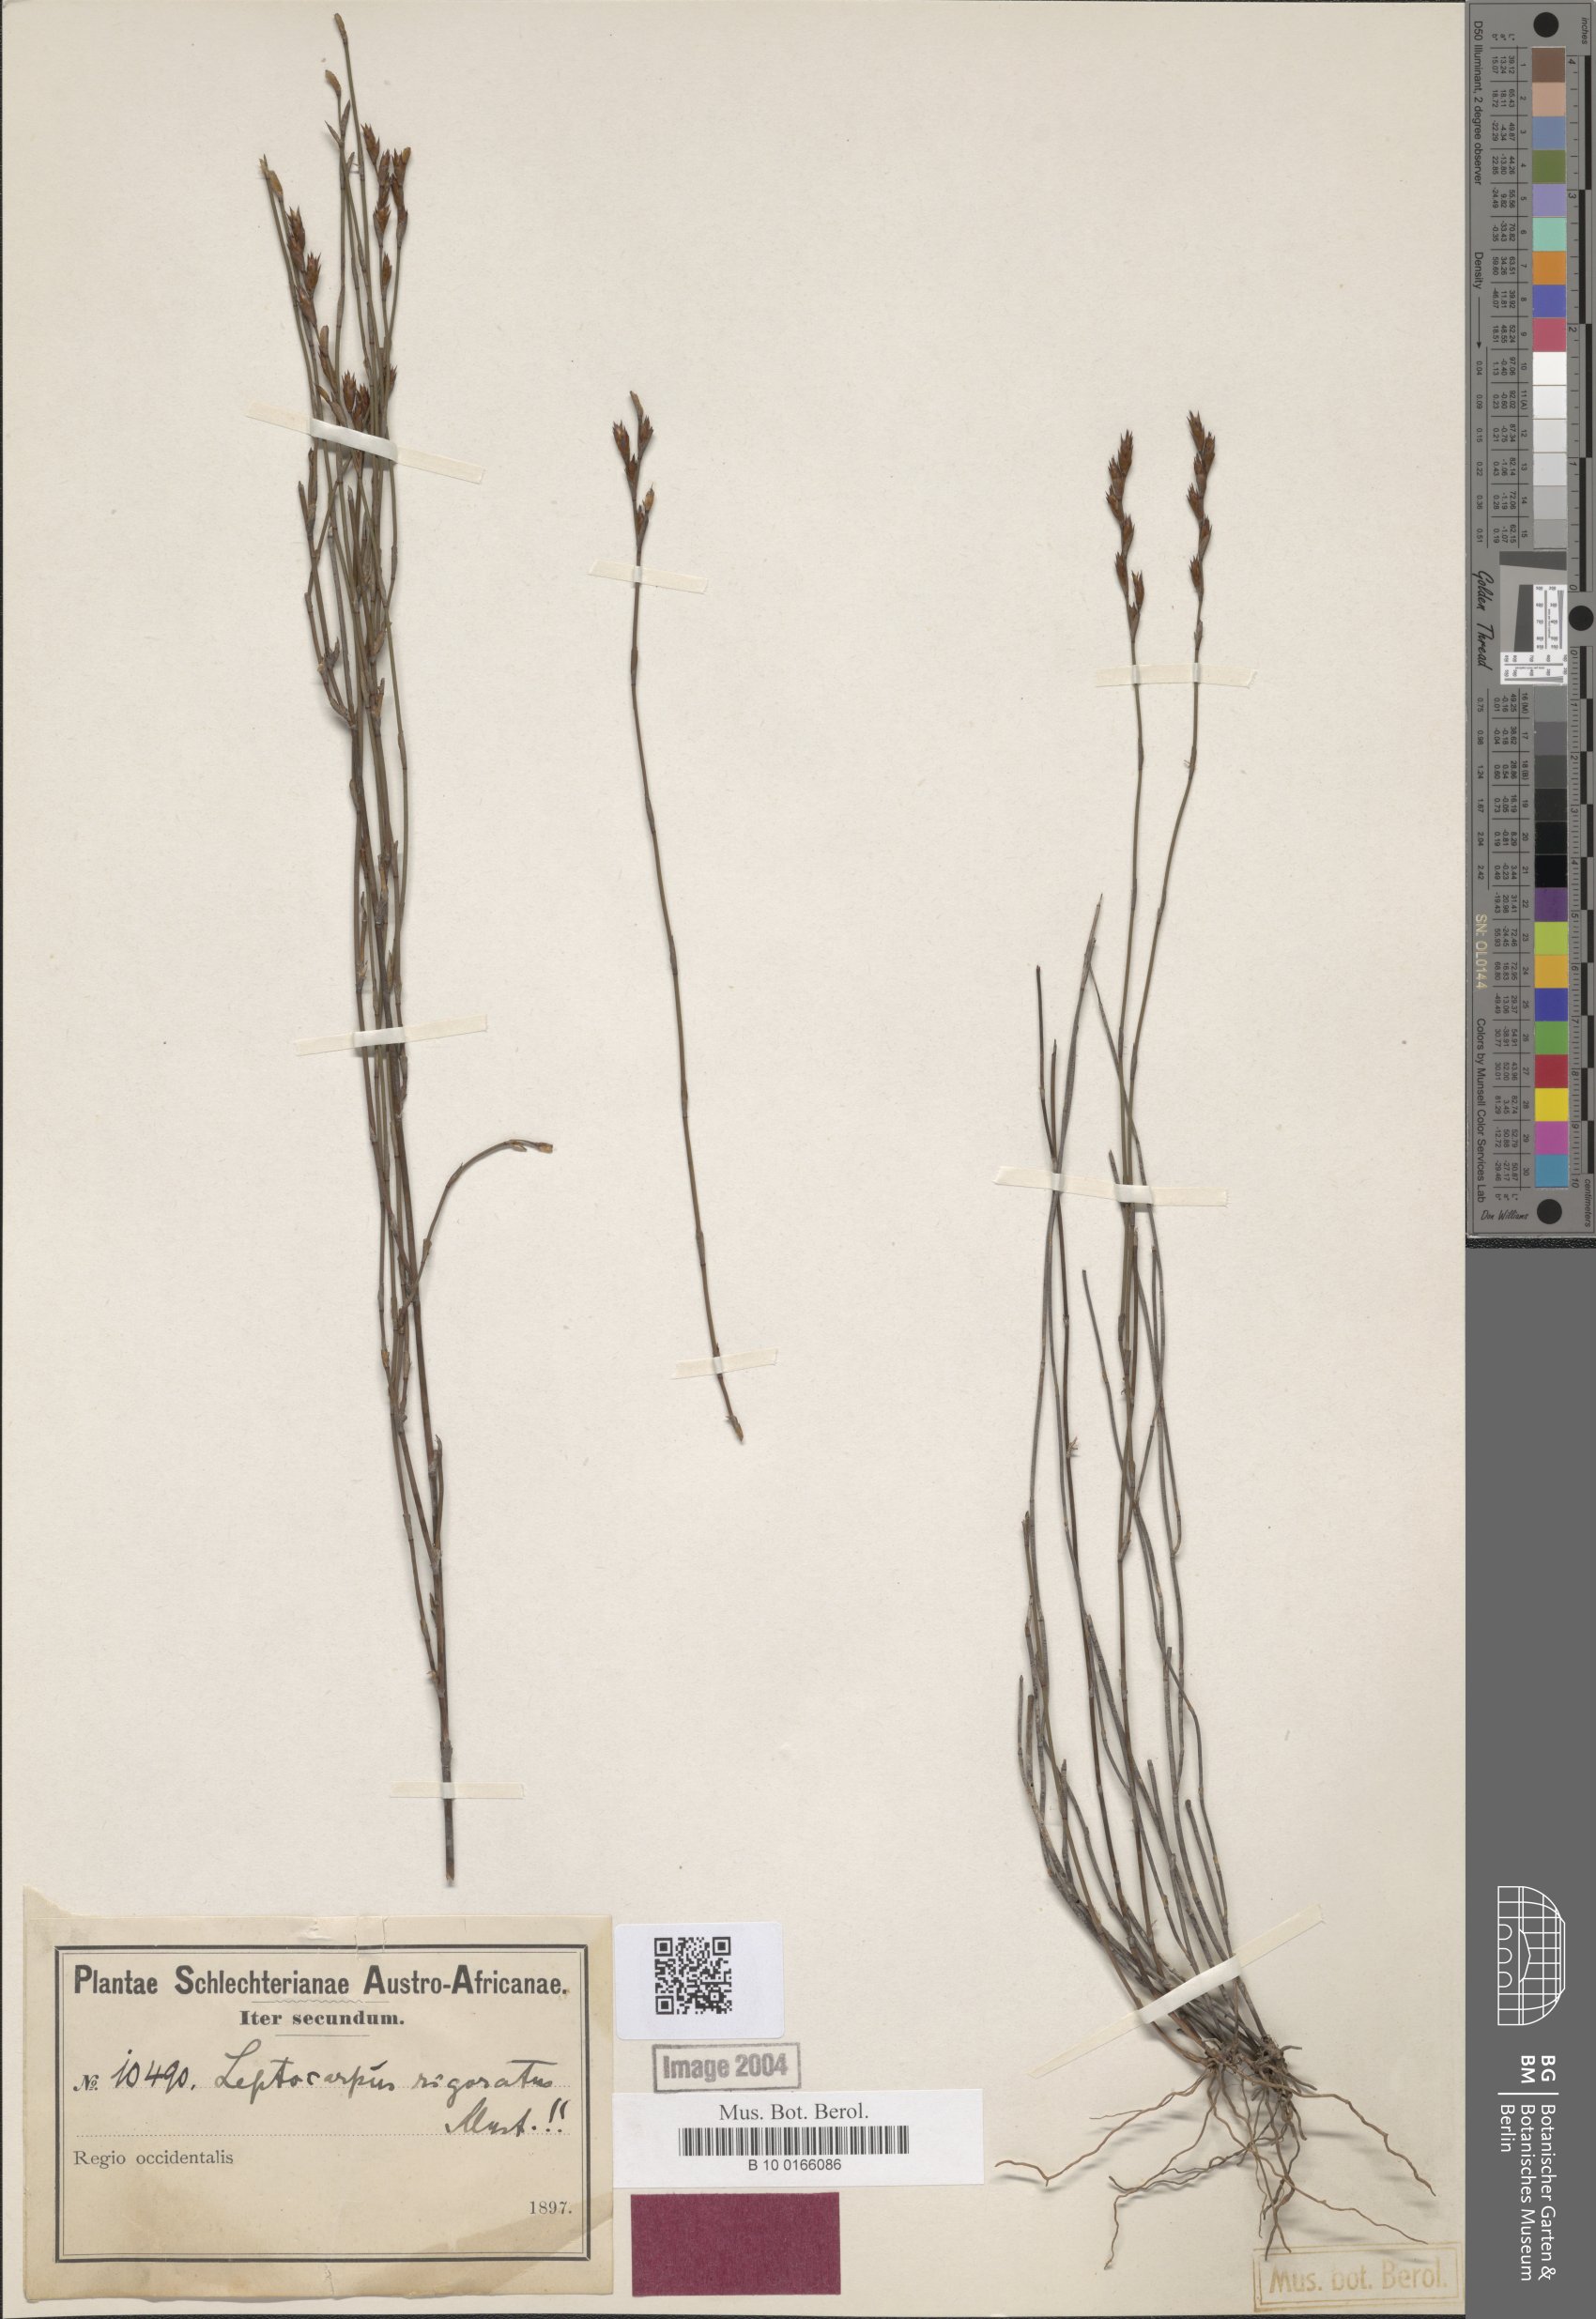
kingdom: Plantae
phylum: Tracheophyta
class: Liliopsida
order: Poales
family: Restionaceae
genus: Restio
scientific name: Restio rigoratus
